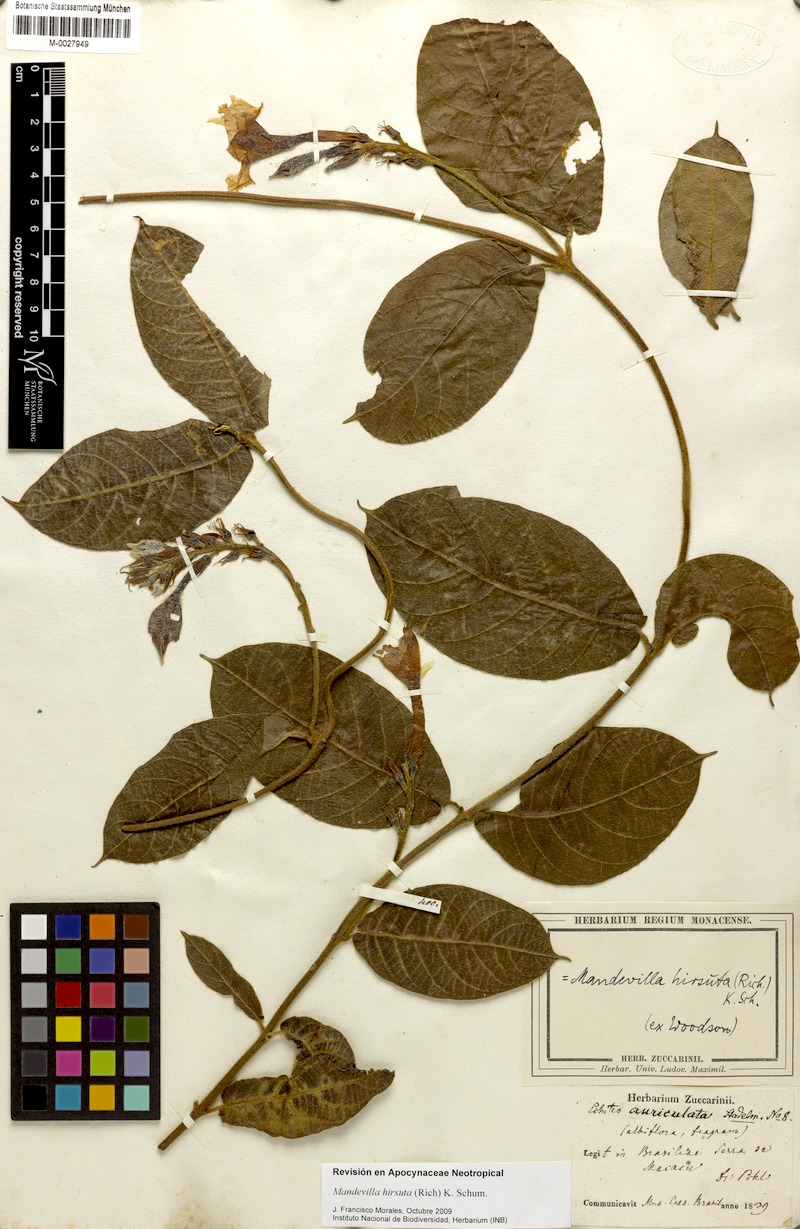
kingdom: Plantae
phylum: Tracheophyta
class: Magnoliopsida
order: Gentianales
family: Apocynaceae
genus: Mandevilla
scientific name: Mandevilla hirsuta
